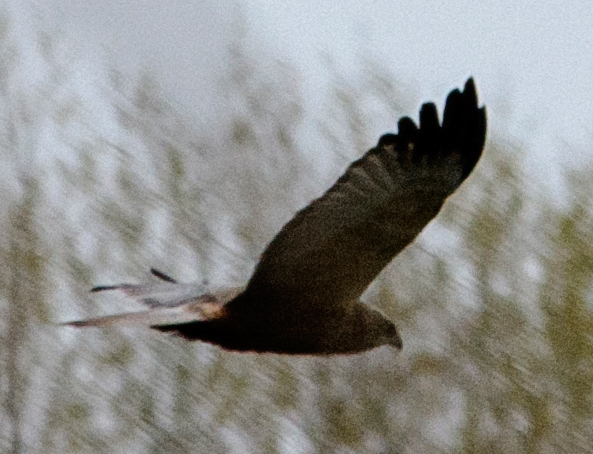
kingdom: Animalia
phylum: Chordata
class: Aves
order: Accipitriformes
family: Accipitridae
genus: Circus
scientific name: Circus aeruginosus
